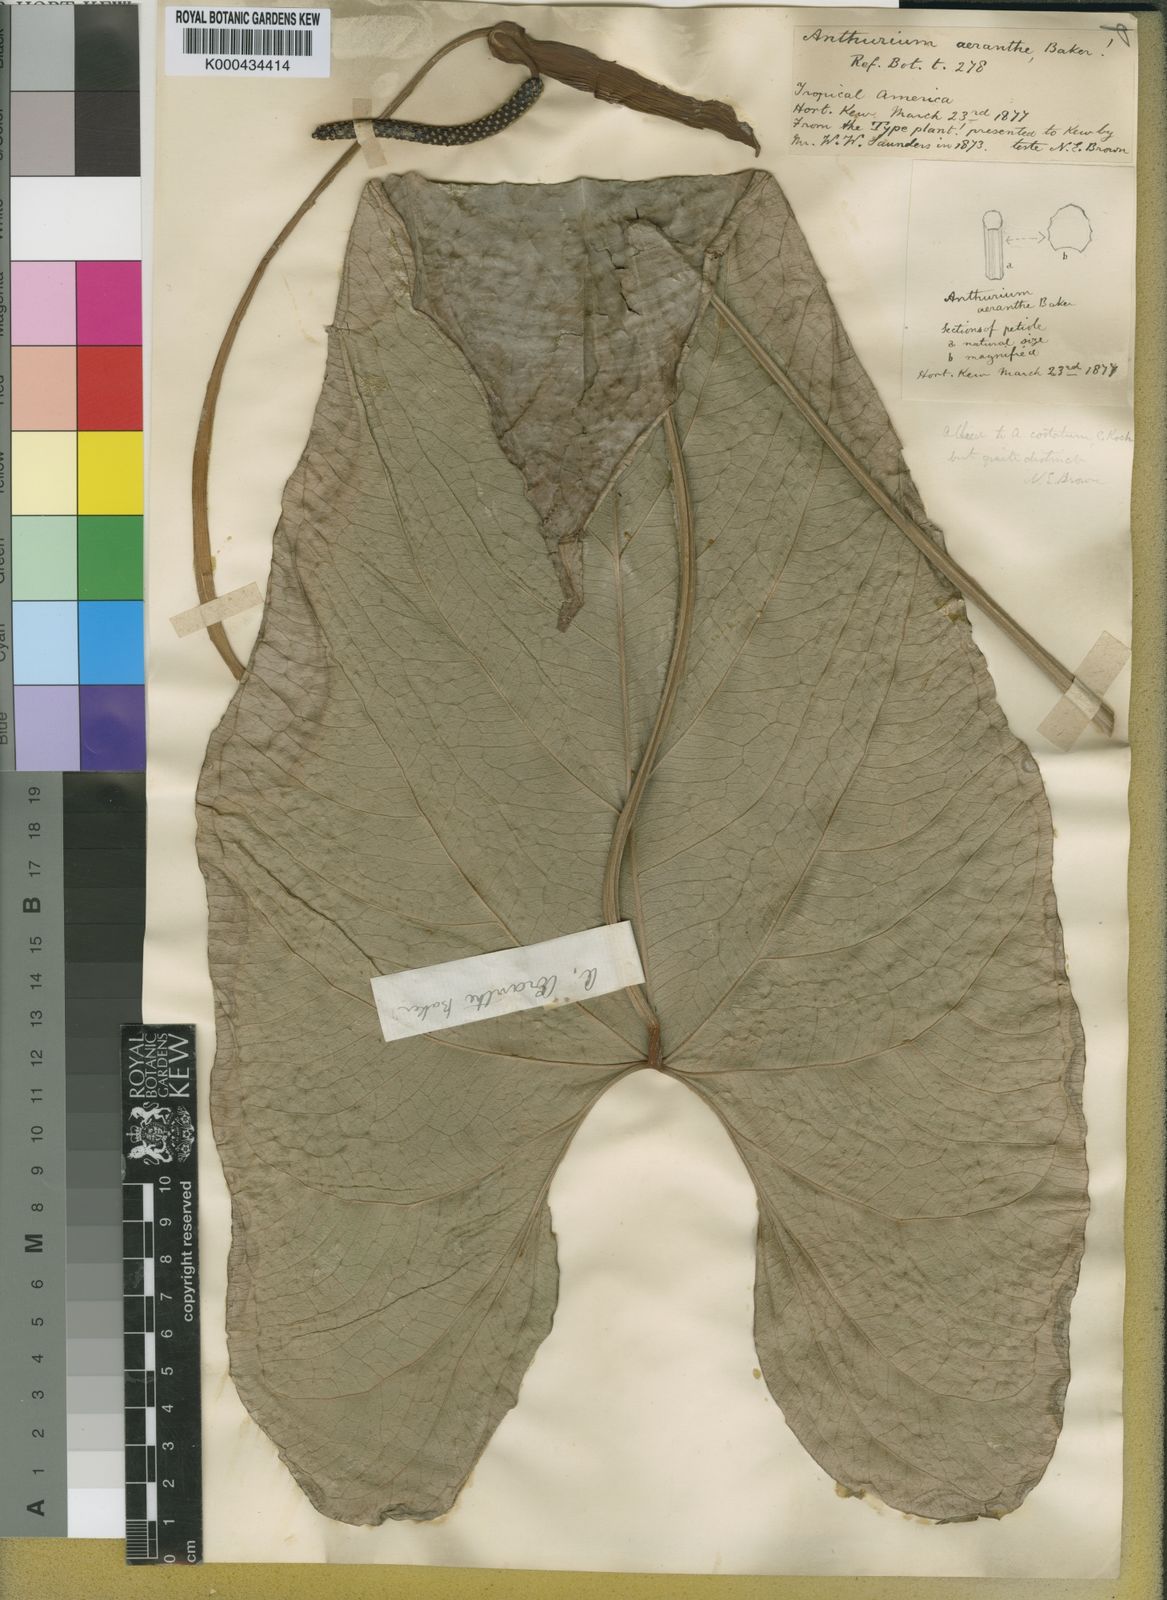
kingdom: Plantae
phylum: Tracheophyta
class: Liliopsida
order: Alismatales
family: Araceae
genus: Anthurium
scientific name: Anthurium sagittatum
